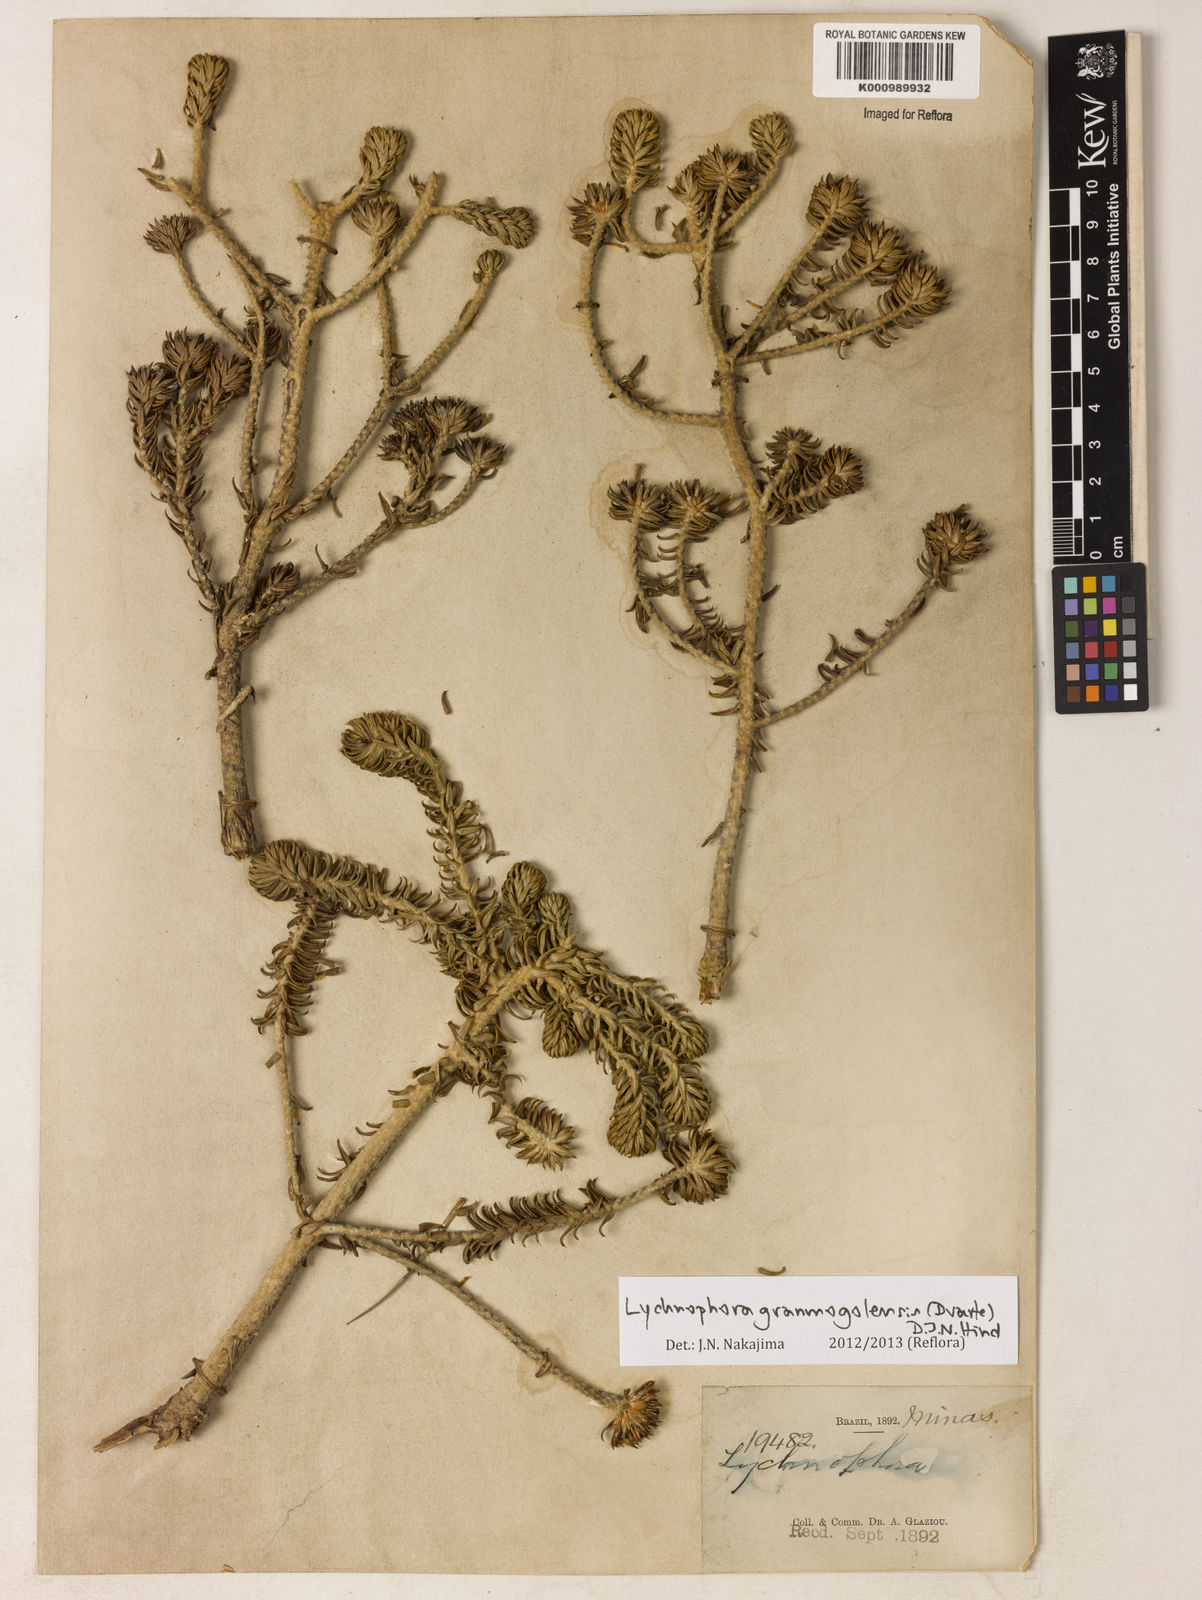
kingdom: Plantae
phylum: Tracheophyta
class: Magnoliopsida
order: Asterales
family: Asteraceae
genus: Lychnophora
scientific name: Lychnophora granmogolensis
